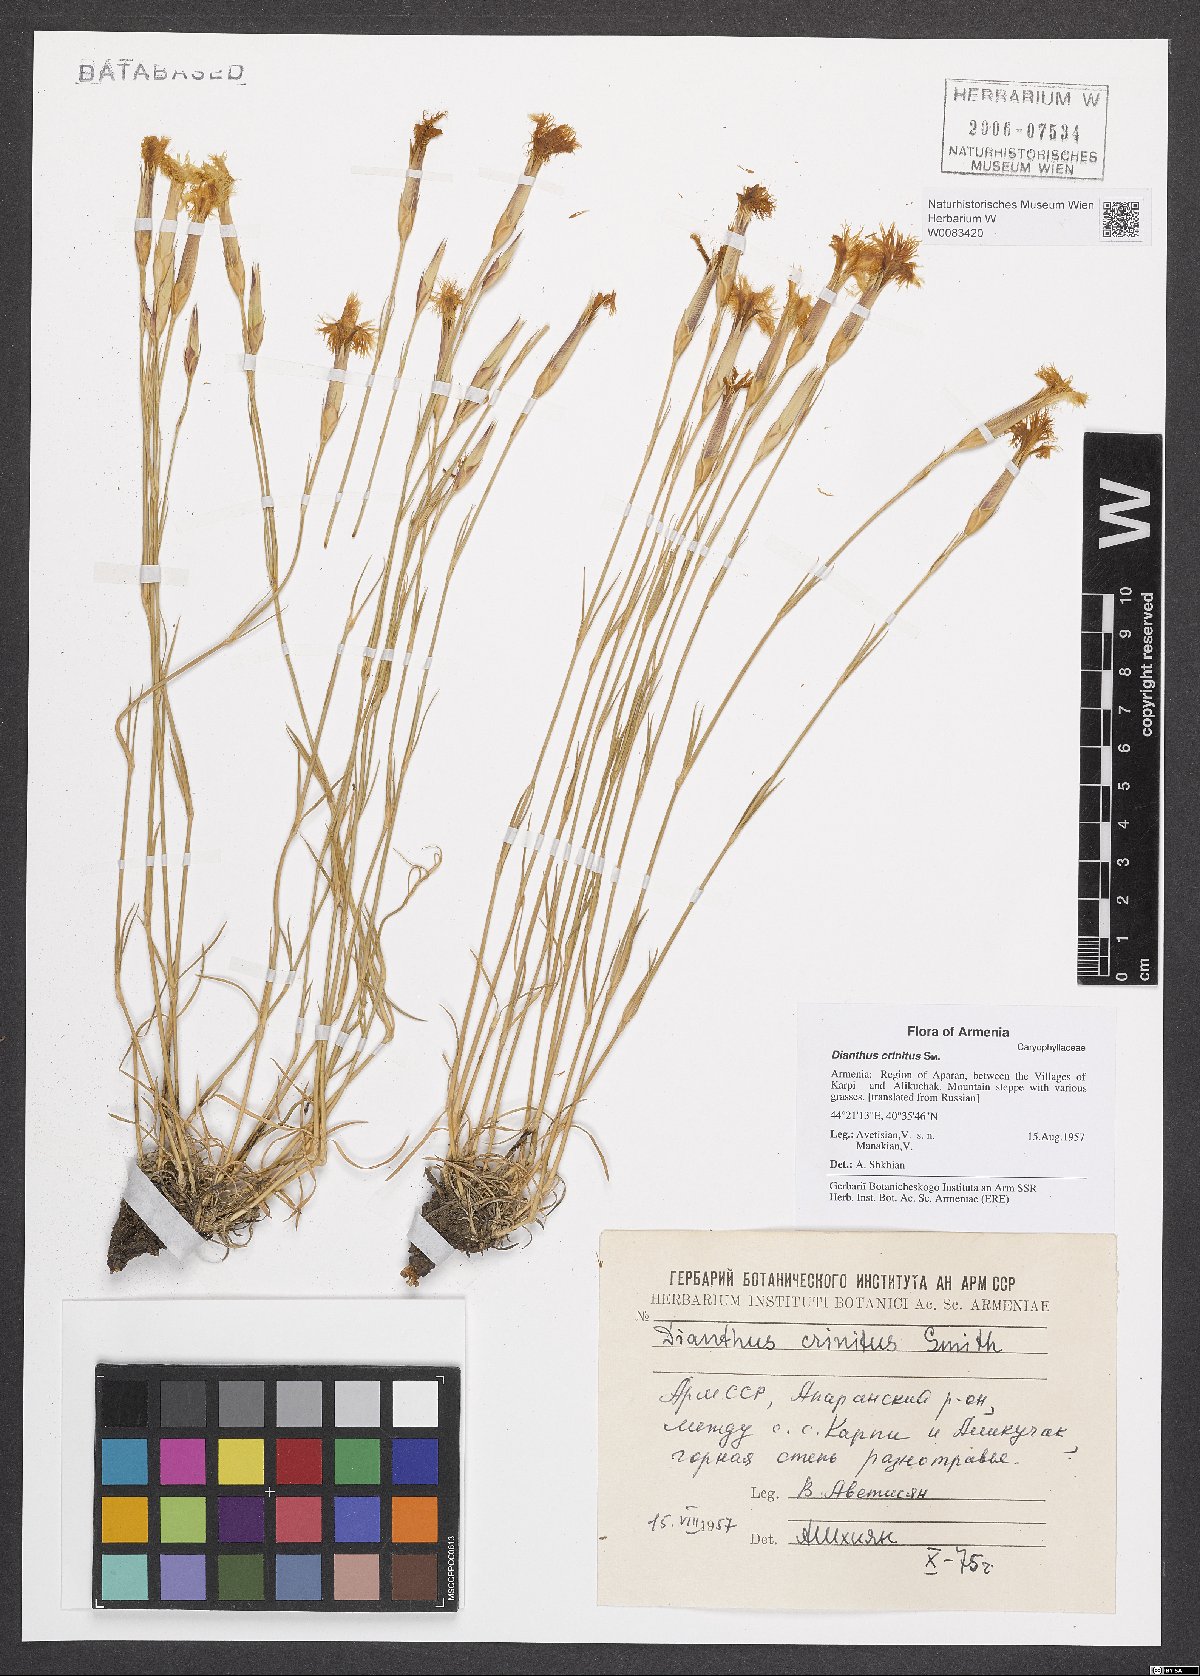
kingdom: Plantae
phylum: Tracheophyta
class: Magnoliopsida
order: Caryophyllales
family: Caryophyllaceae
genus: Dianthus
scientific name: Dianthus crinitus
